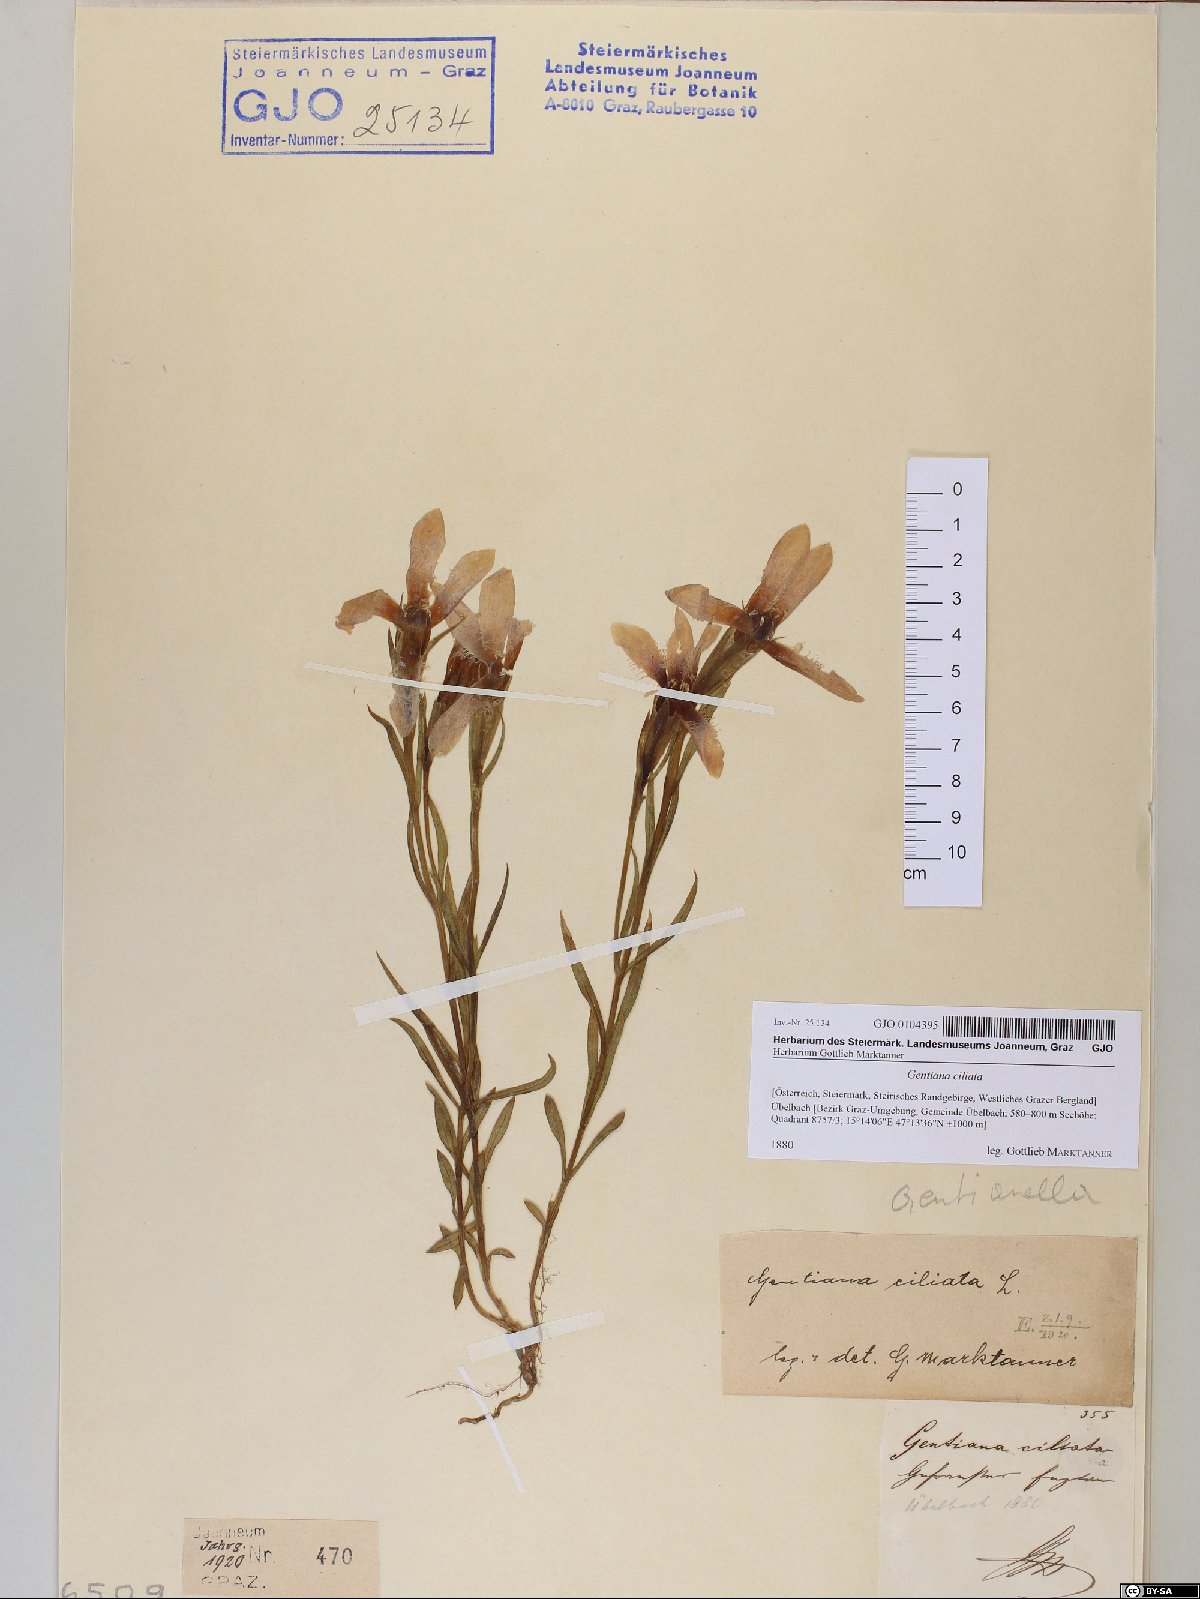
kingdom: Plantae
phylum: Tracheophyta
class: Magnoliopsida
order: Gentianales
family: Gentianaceae
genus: Gentianopsis
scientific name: Gentianopsis ciliata
